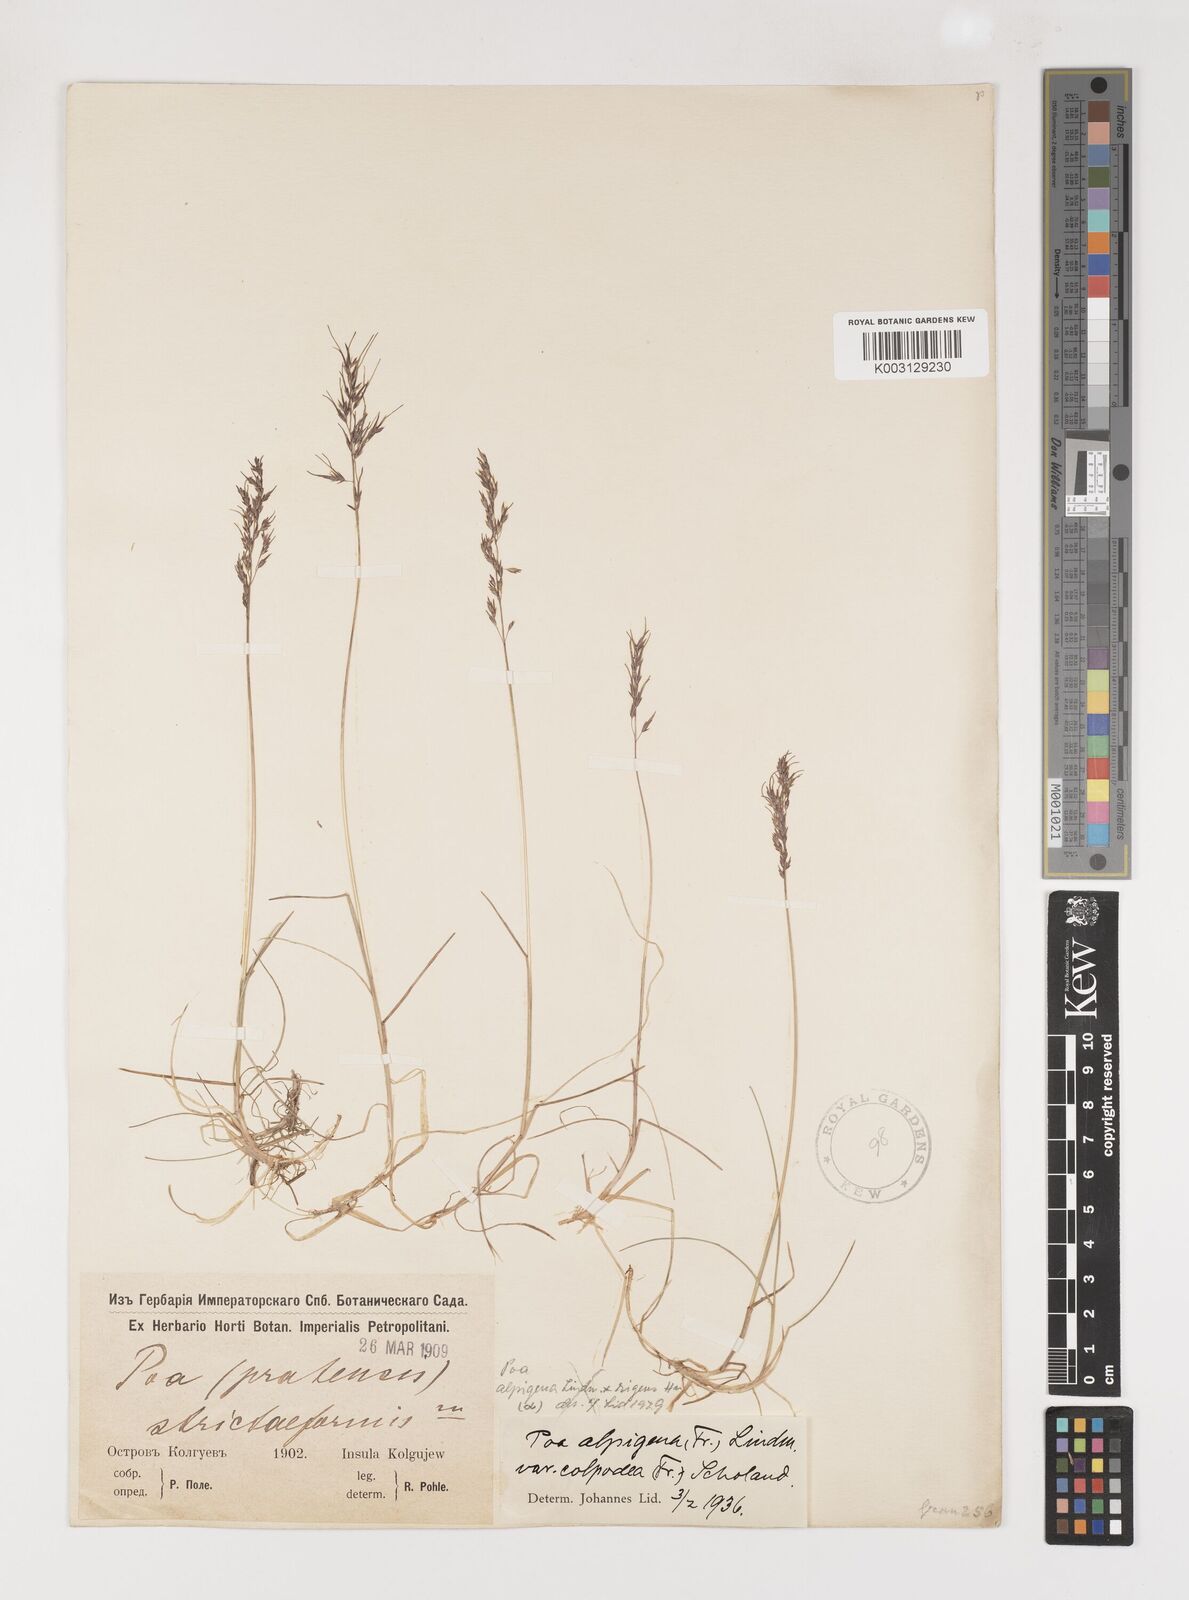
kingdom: Plantae
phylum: Tracheophyta
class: Liliopsida
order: Poales
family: Poaceae
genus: Poa
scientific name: Poa lindebergii
